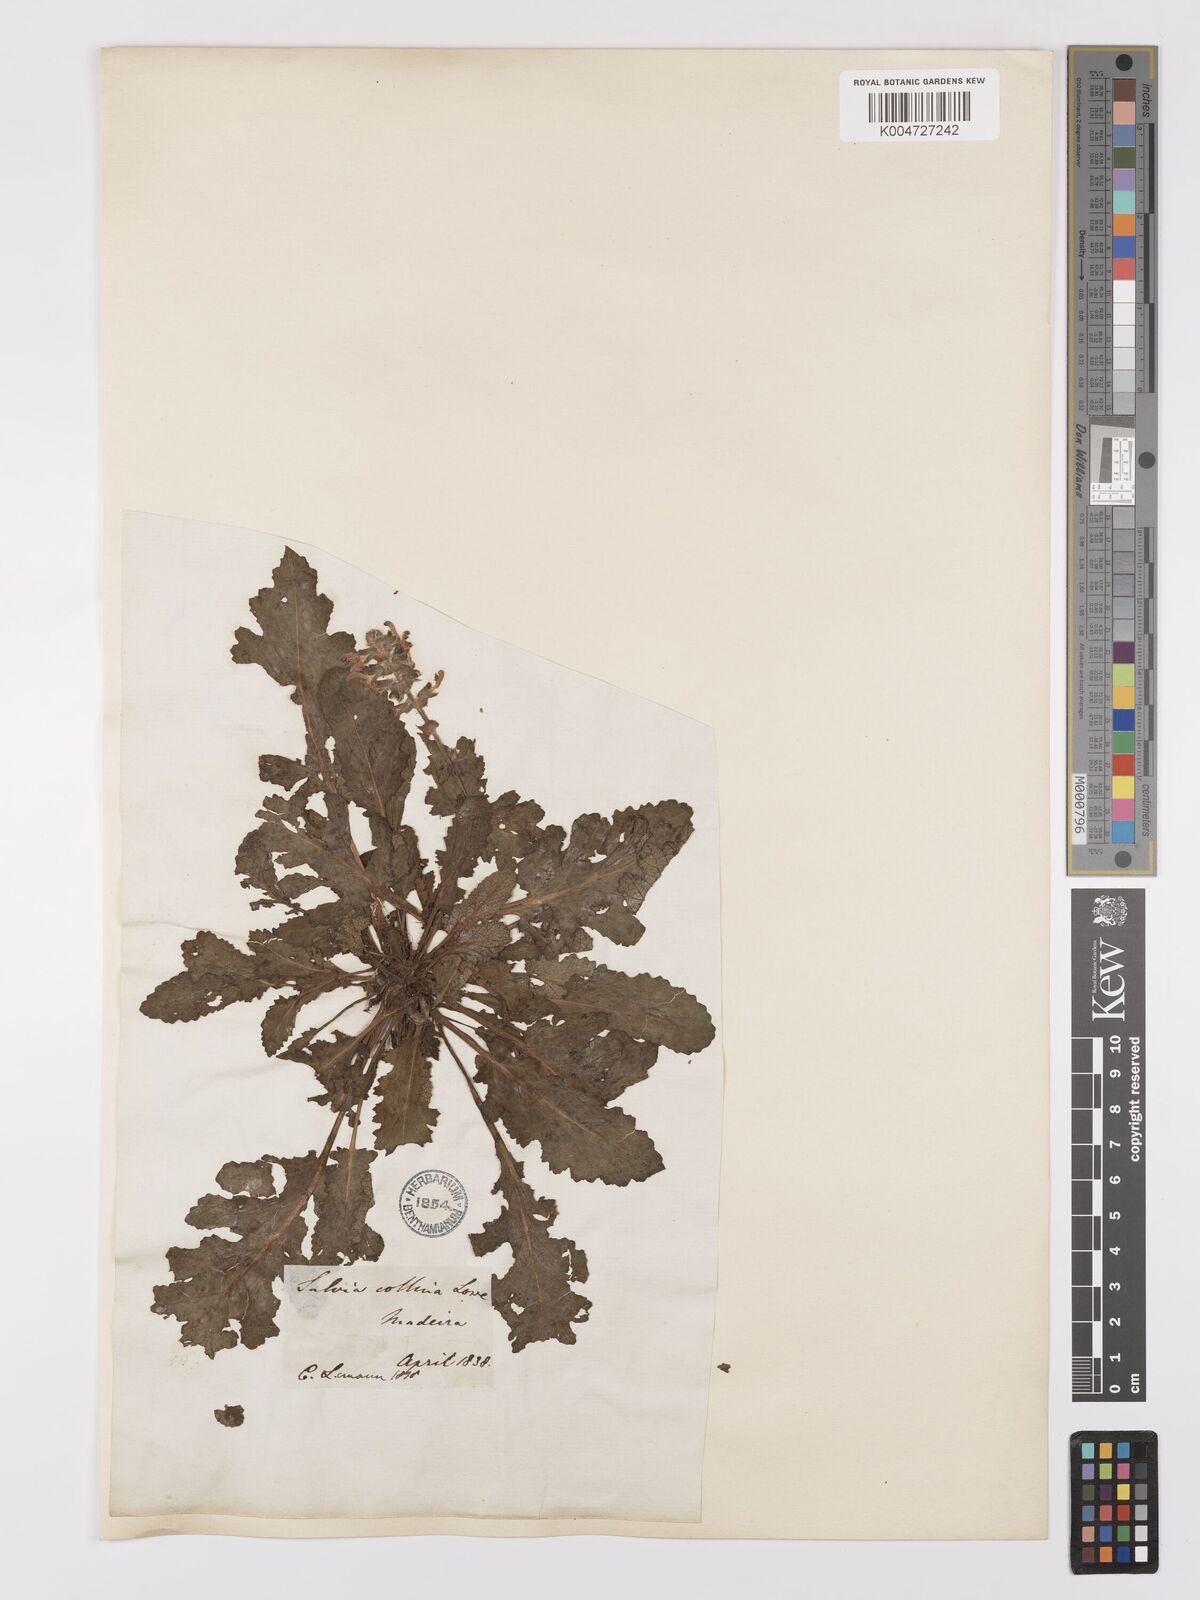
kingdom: Plantae
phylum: Tracheophyta
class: Magnoliopsida
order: Lamiales
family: Lamiaceae
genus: Salvia
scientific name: Salvia verbenaca
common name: Wild clary
